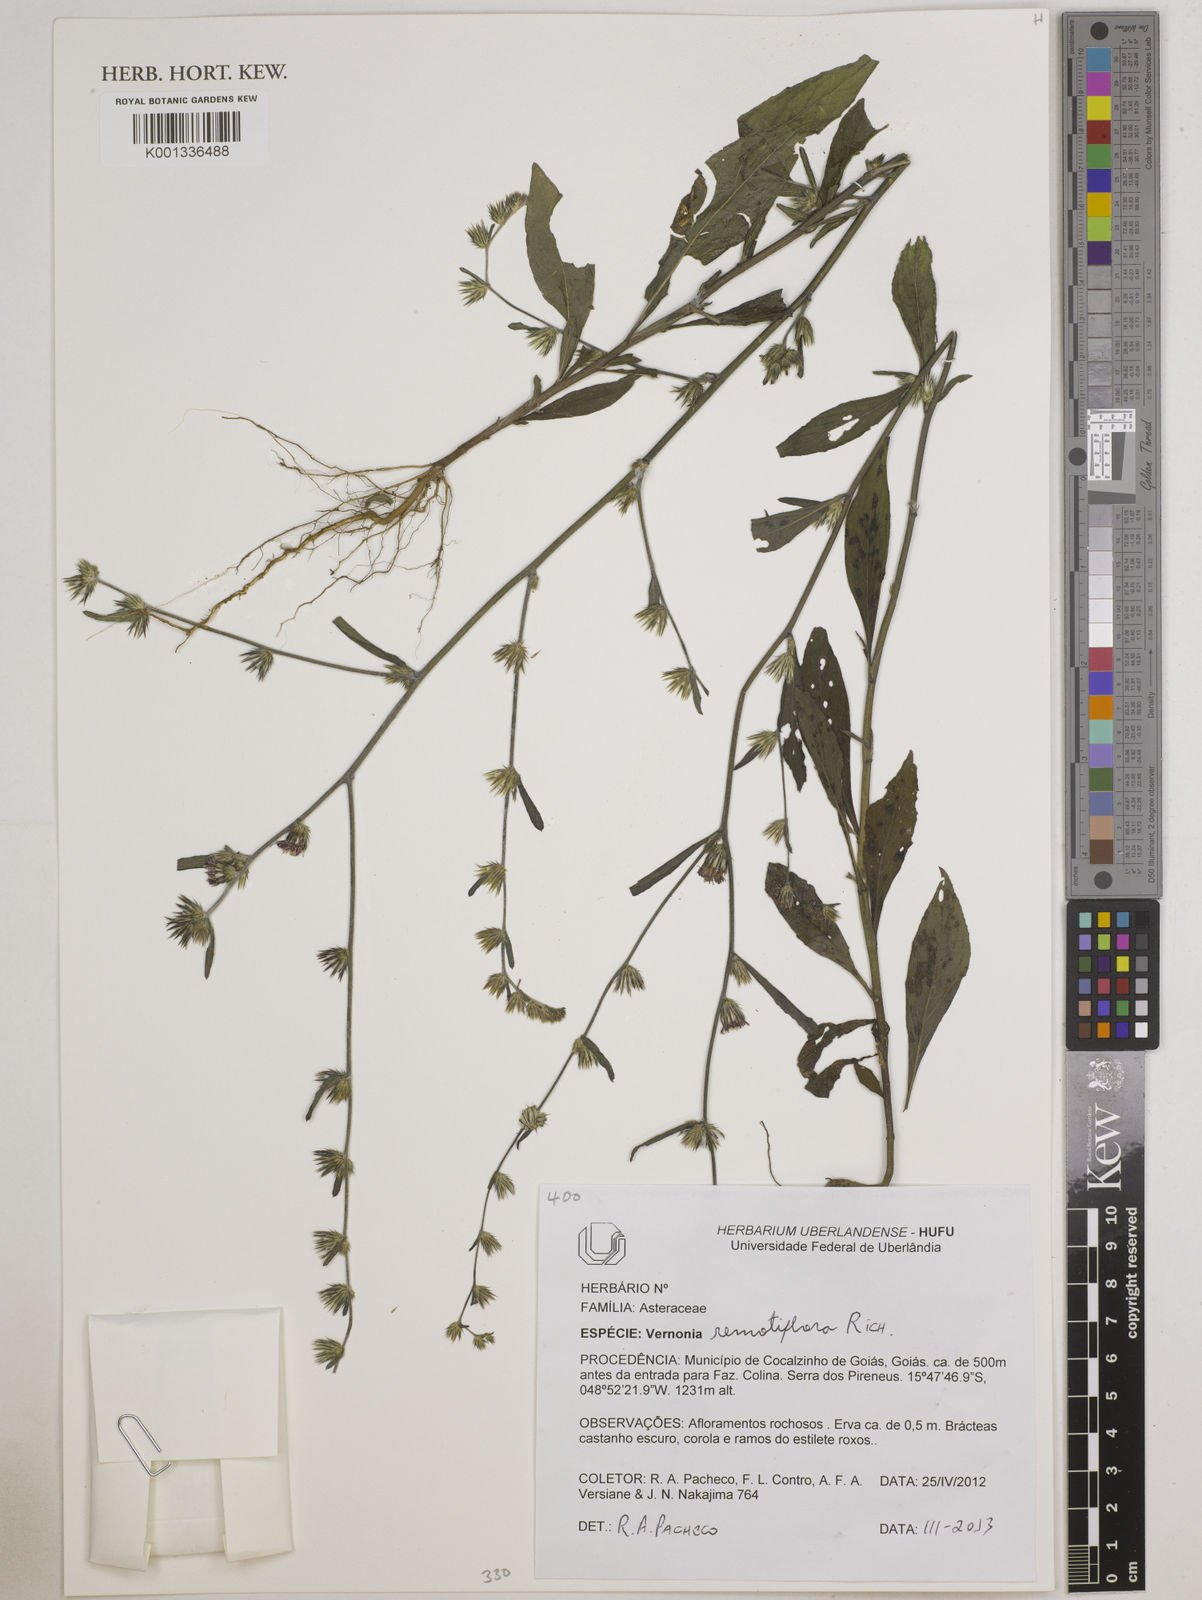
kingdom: Plantae
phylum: Tracheophyta
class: Magnoliopsida
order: Asterales
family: Asteraceae
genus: Lepidaploa
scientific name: Lepidaploa remotiflora
